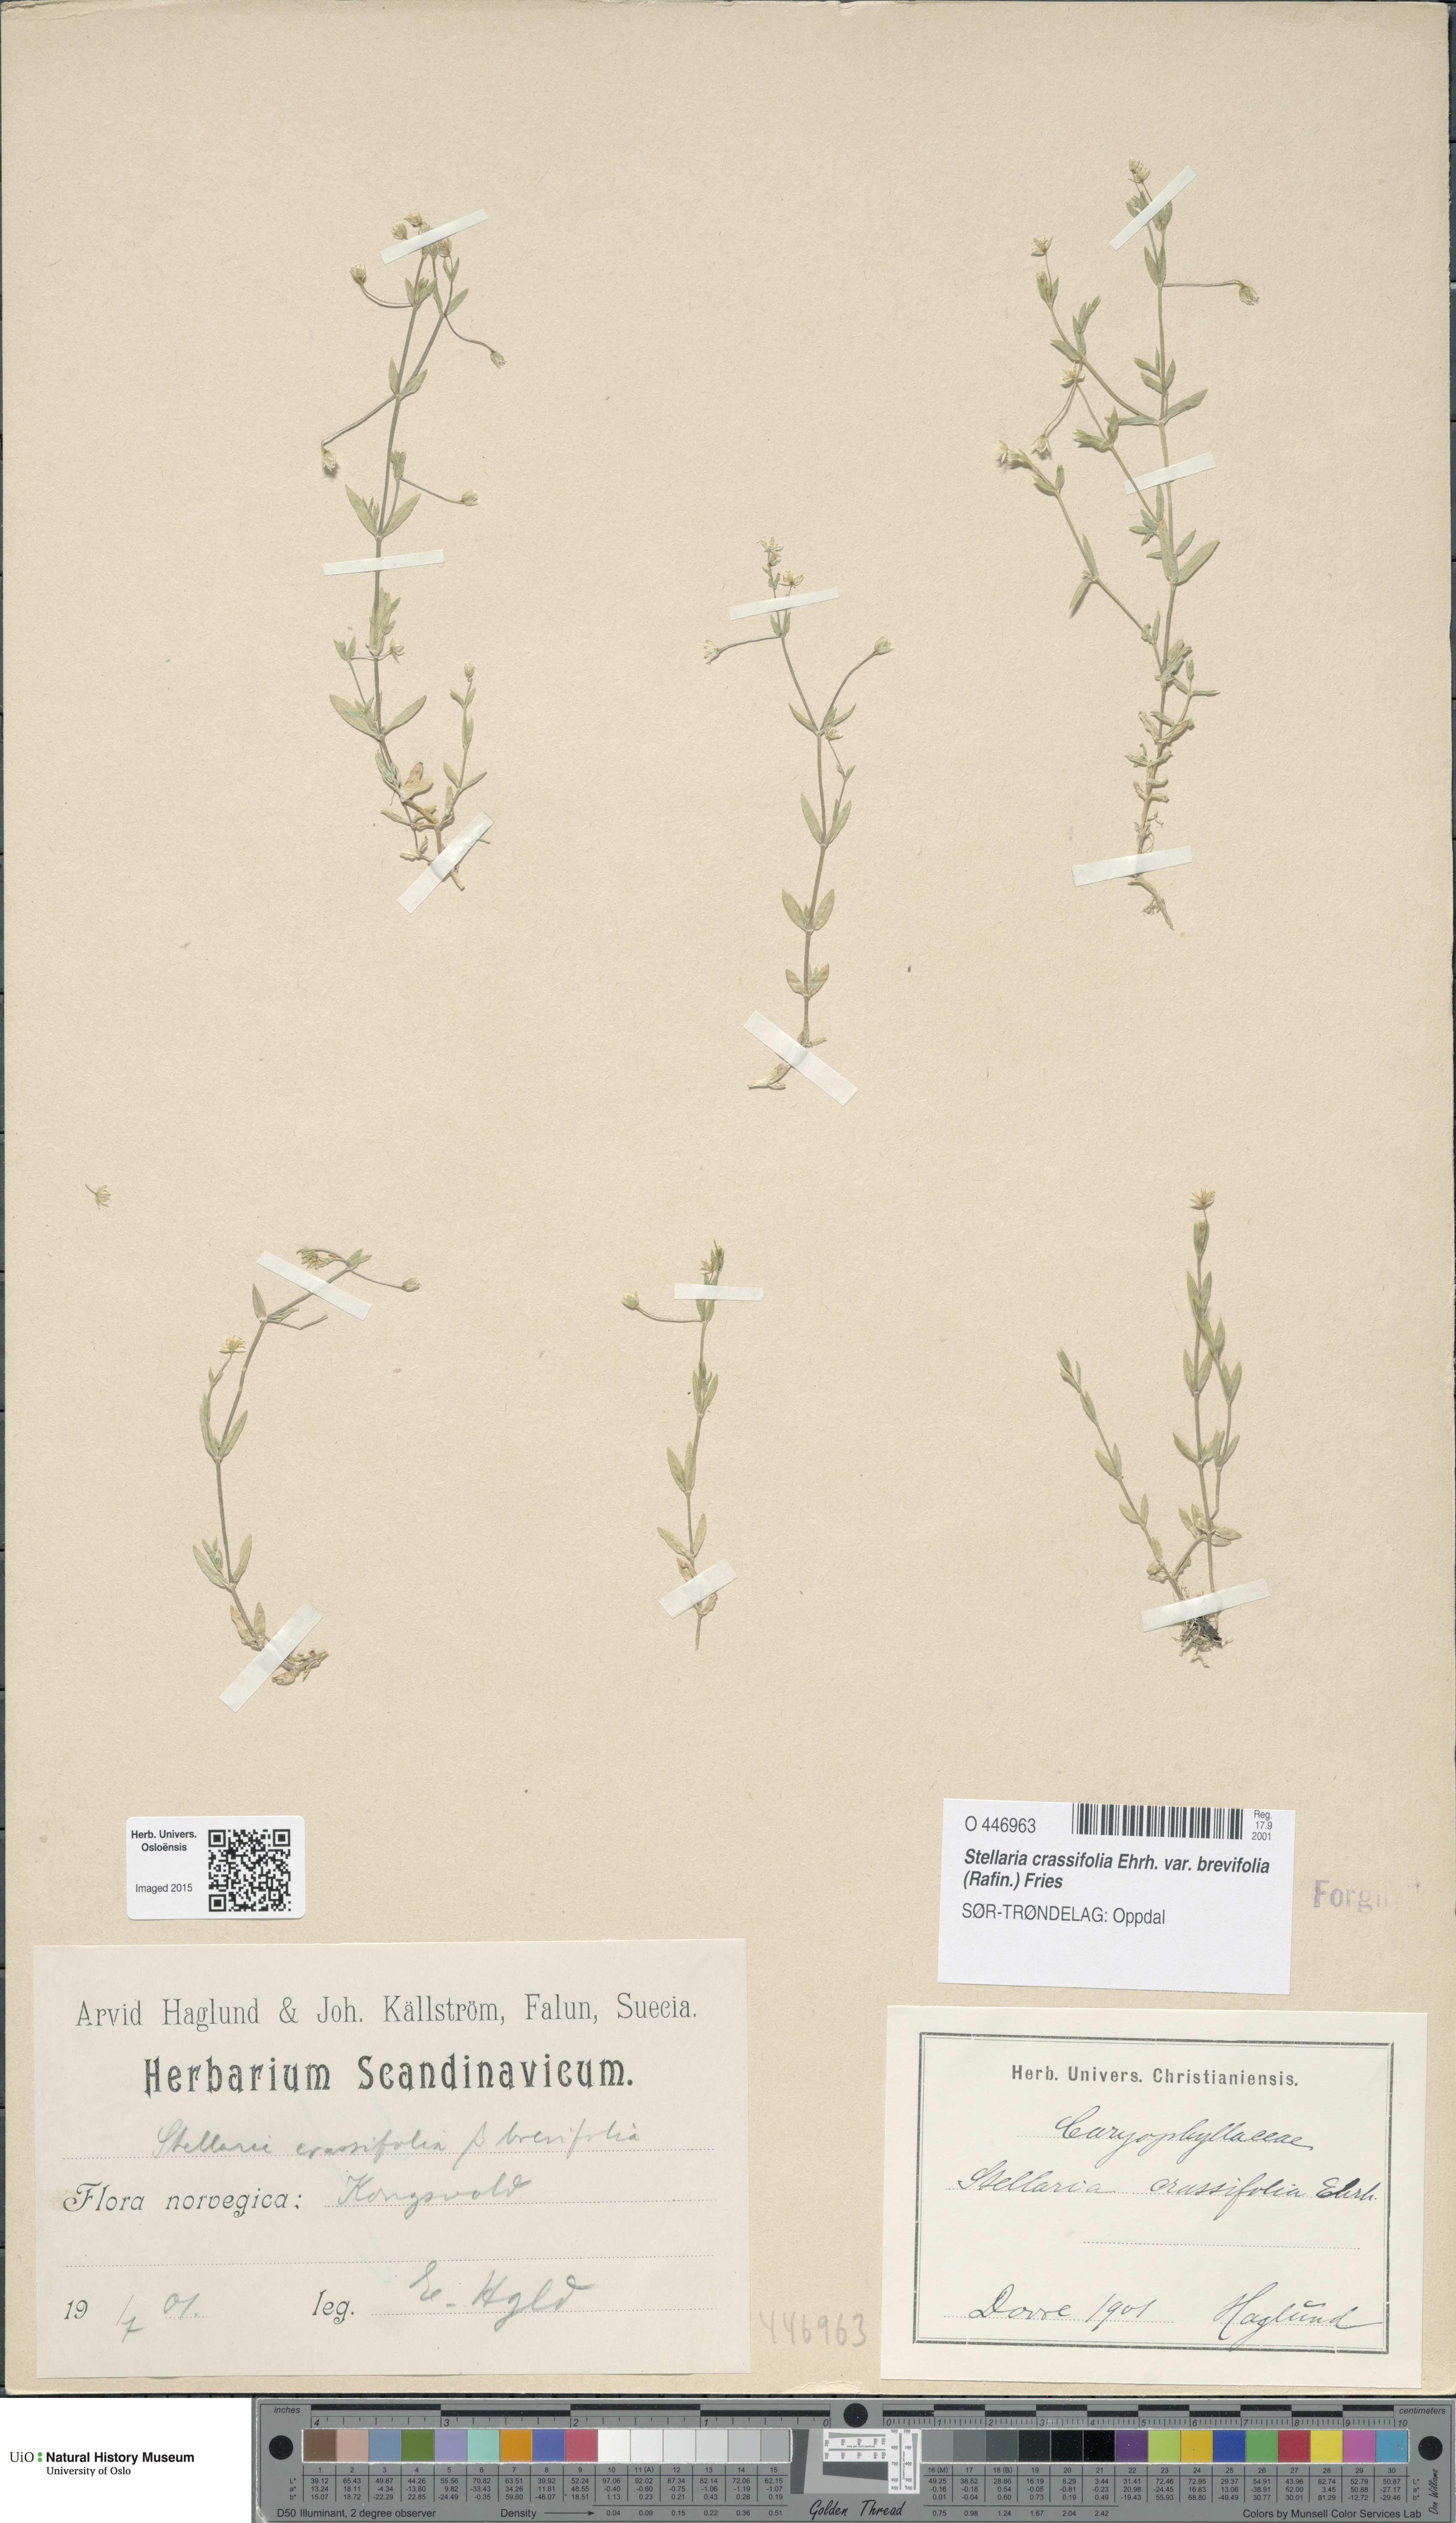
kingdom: Plantae
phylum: Tracheophyta
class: Magnoliopsida
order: Caryophyllales
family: Caryophyllaceae
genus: Stellaria
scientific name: Stellaria crassifolia
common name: Fleshy starwort
